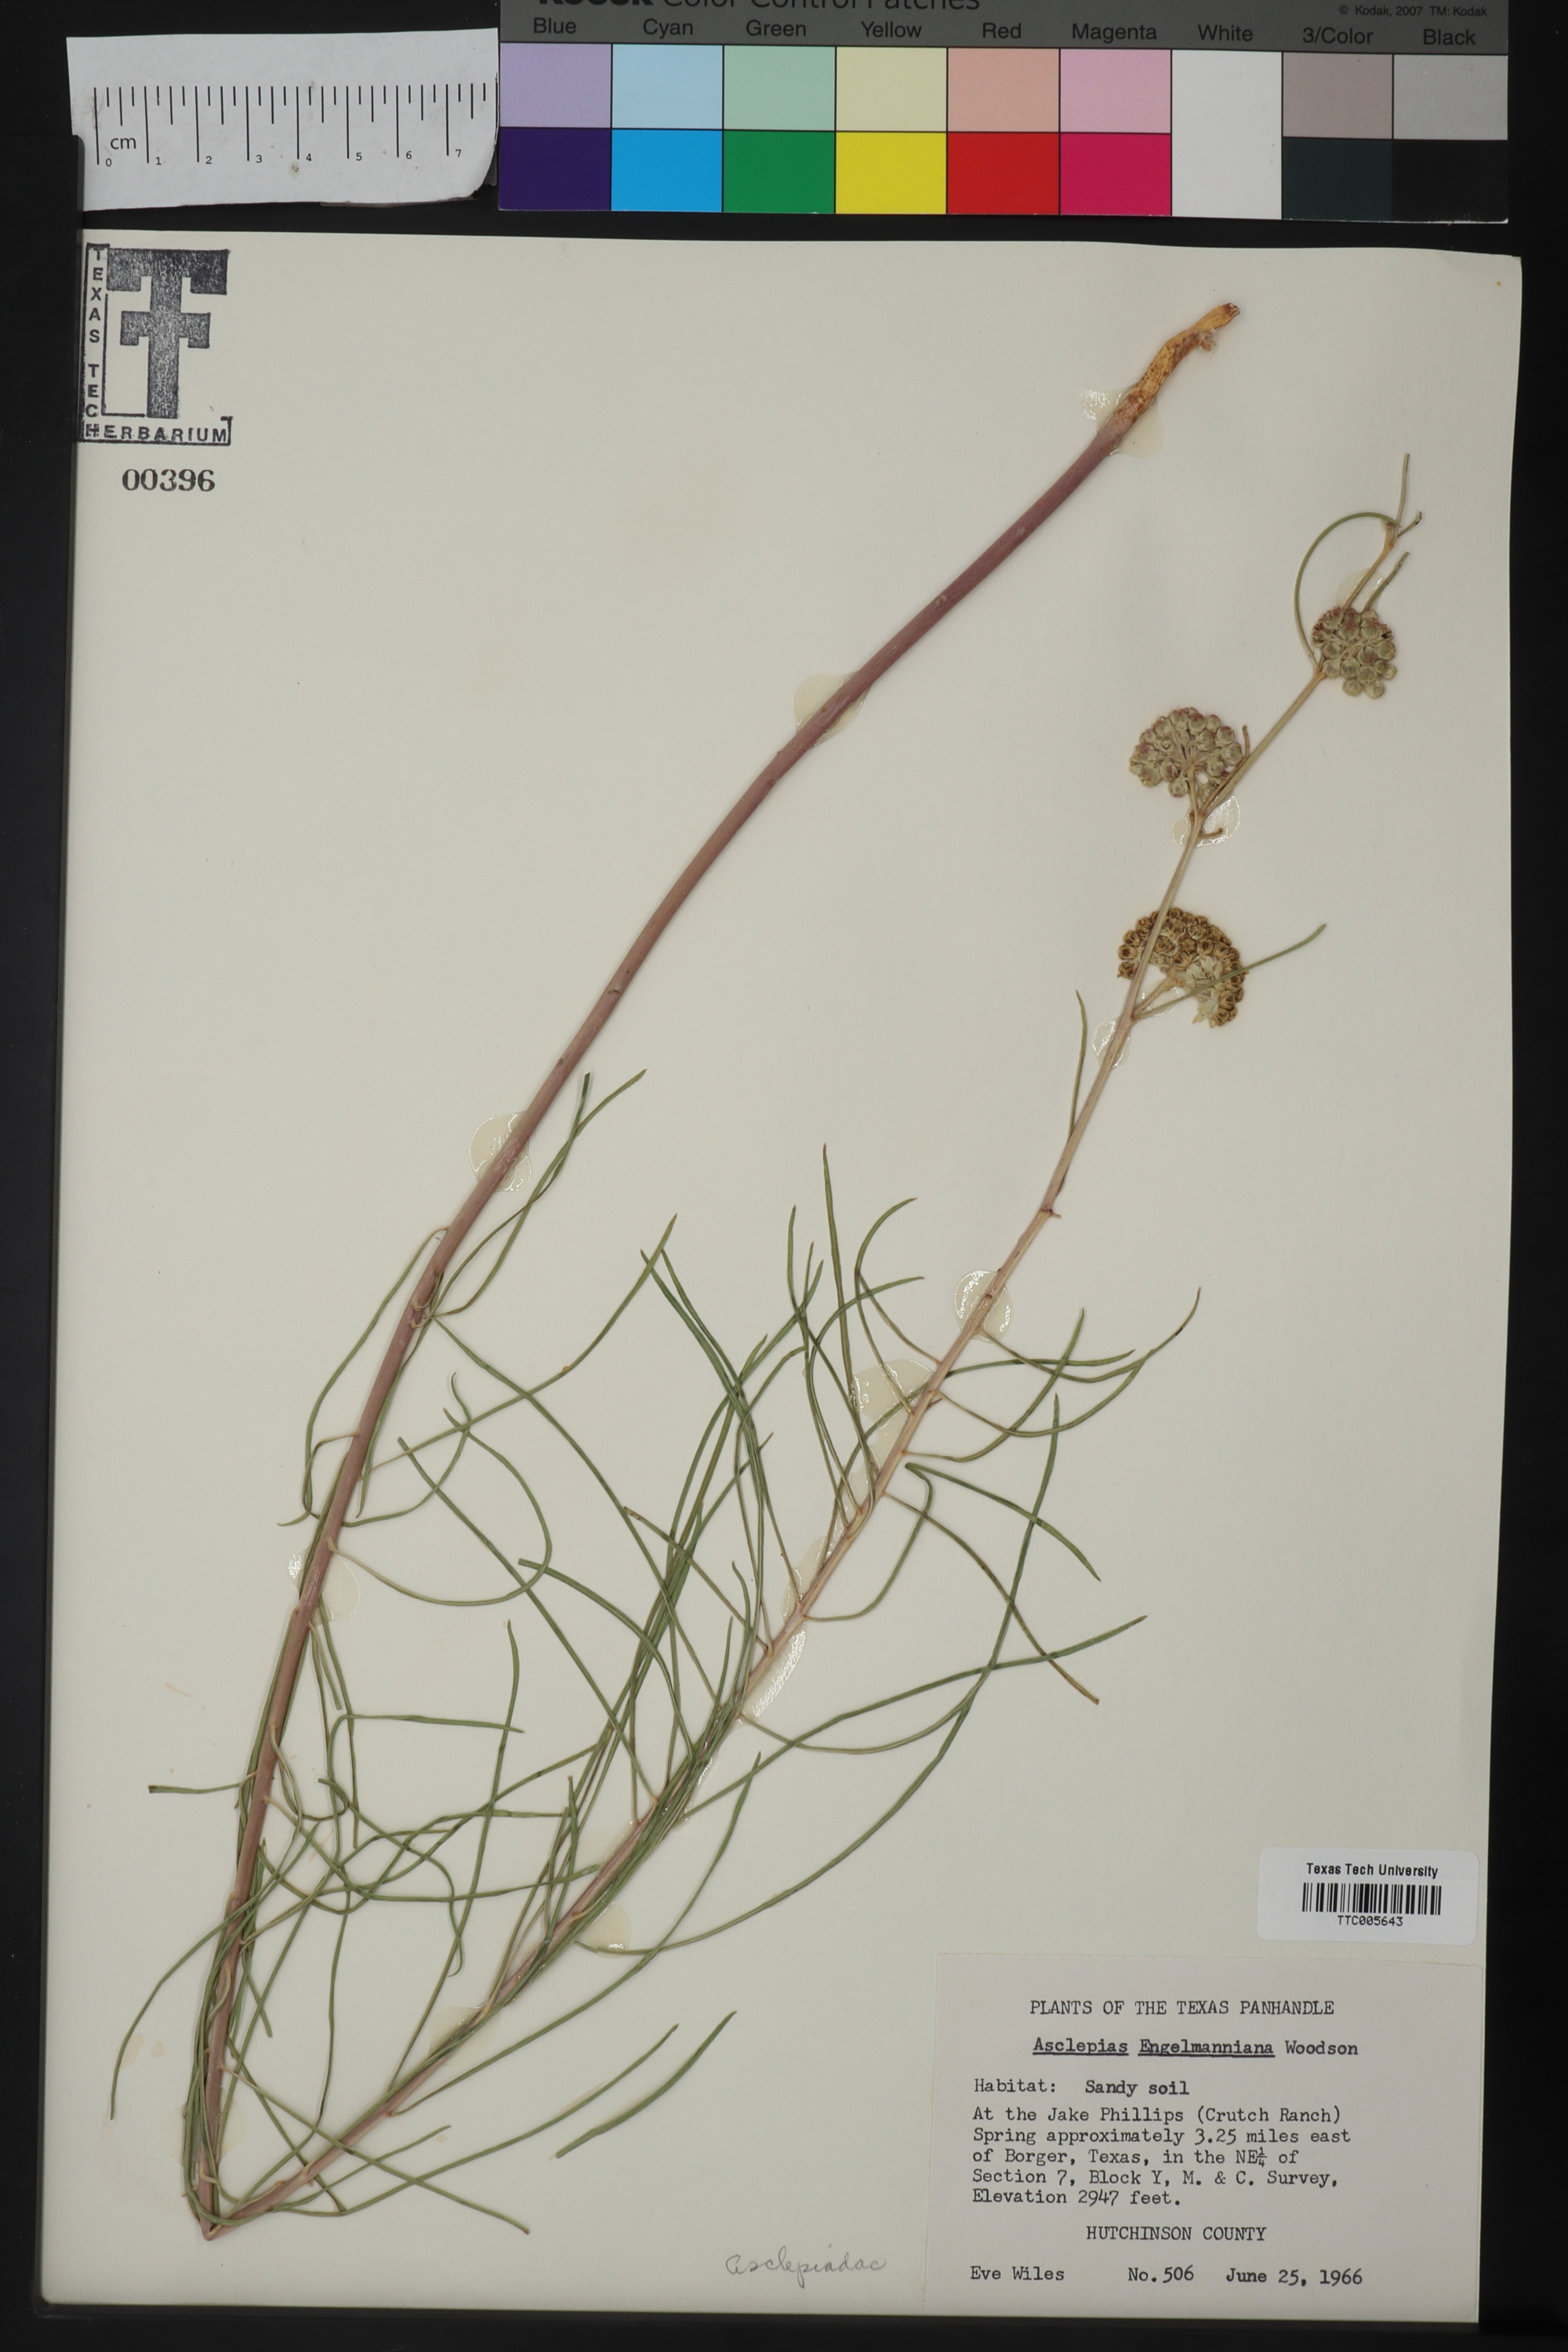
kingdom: Plantae
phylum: Tracheophyta
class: Magnoliopsida
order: Gentianales
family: Apocynaceae
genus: Asclepias
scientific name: Asclepias engelmanniana
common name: Engelmann's milkweed
